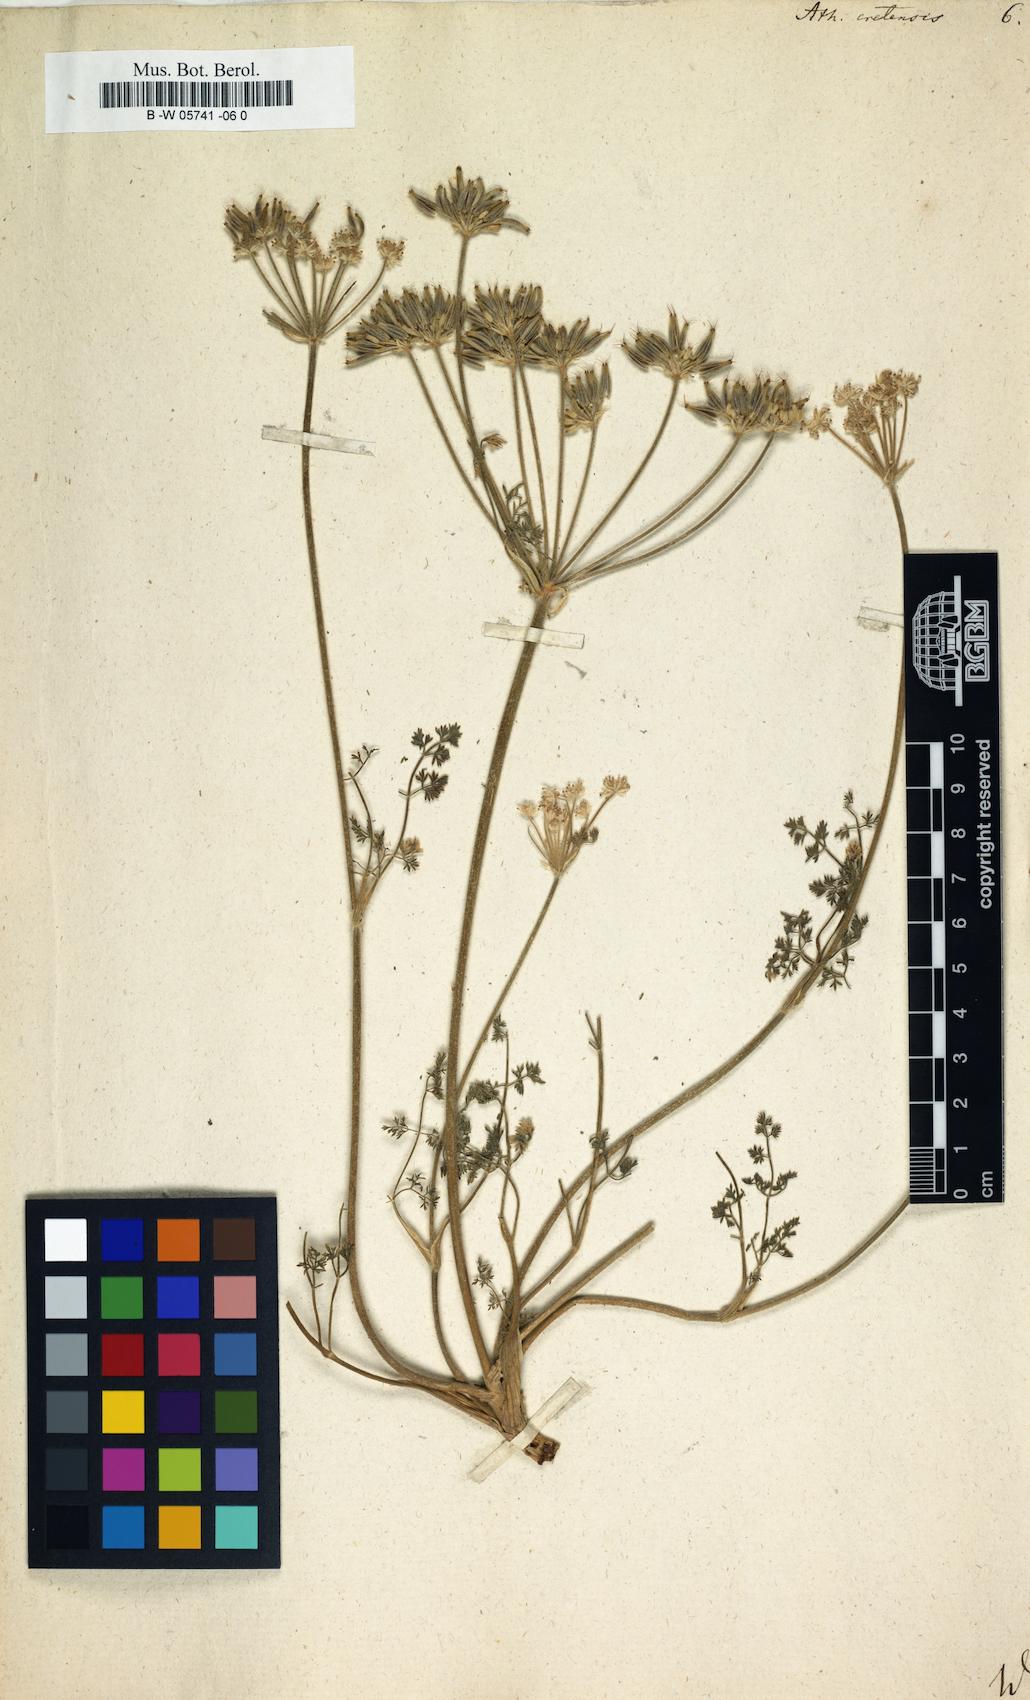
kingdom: Plantae
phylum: Tracheophyta
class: Magnoliopsida
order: Apiales
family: Apiaceae
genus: Athamanta
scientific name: Athamanta cretensis
